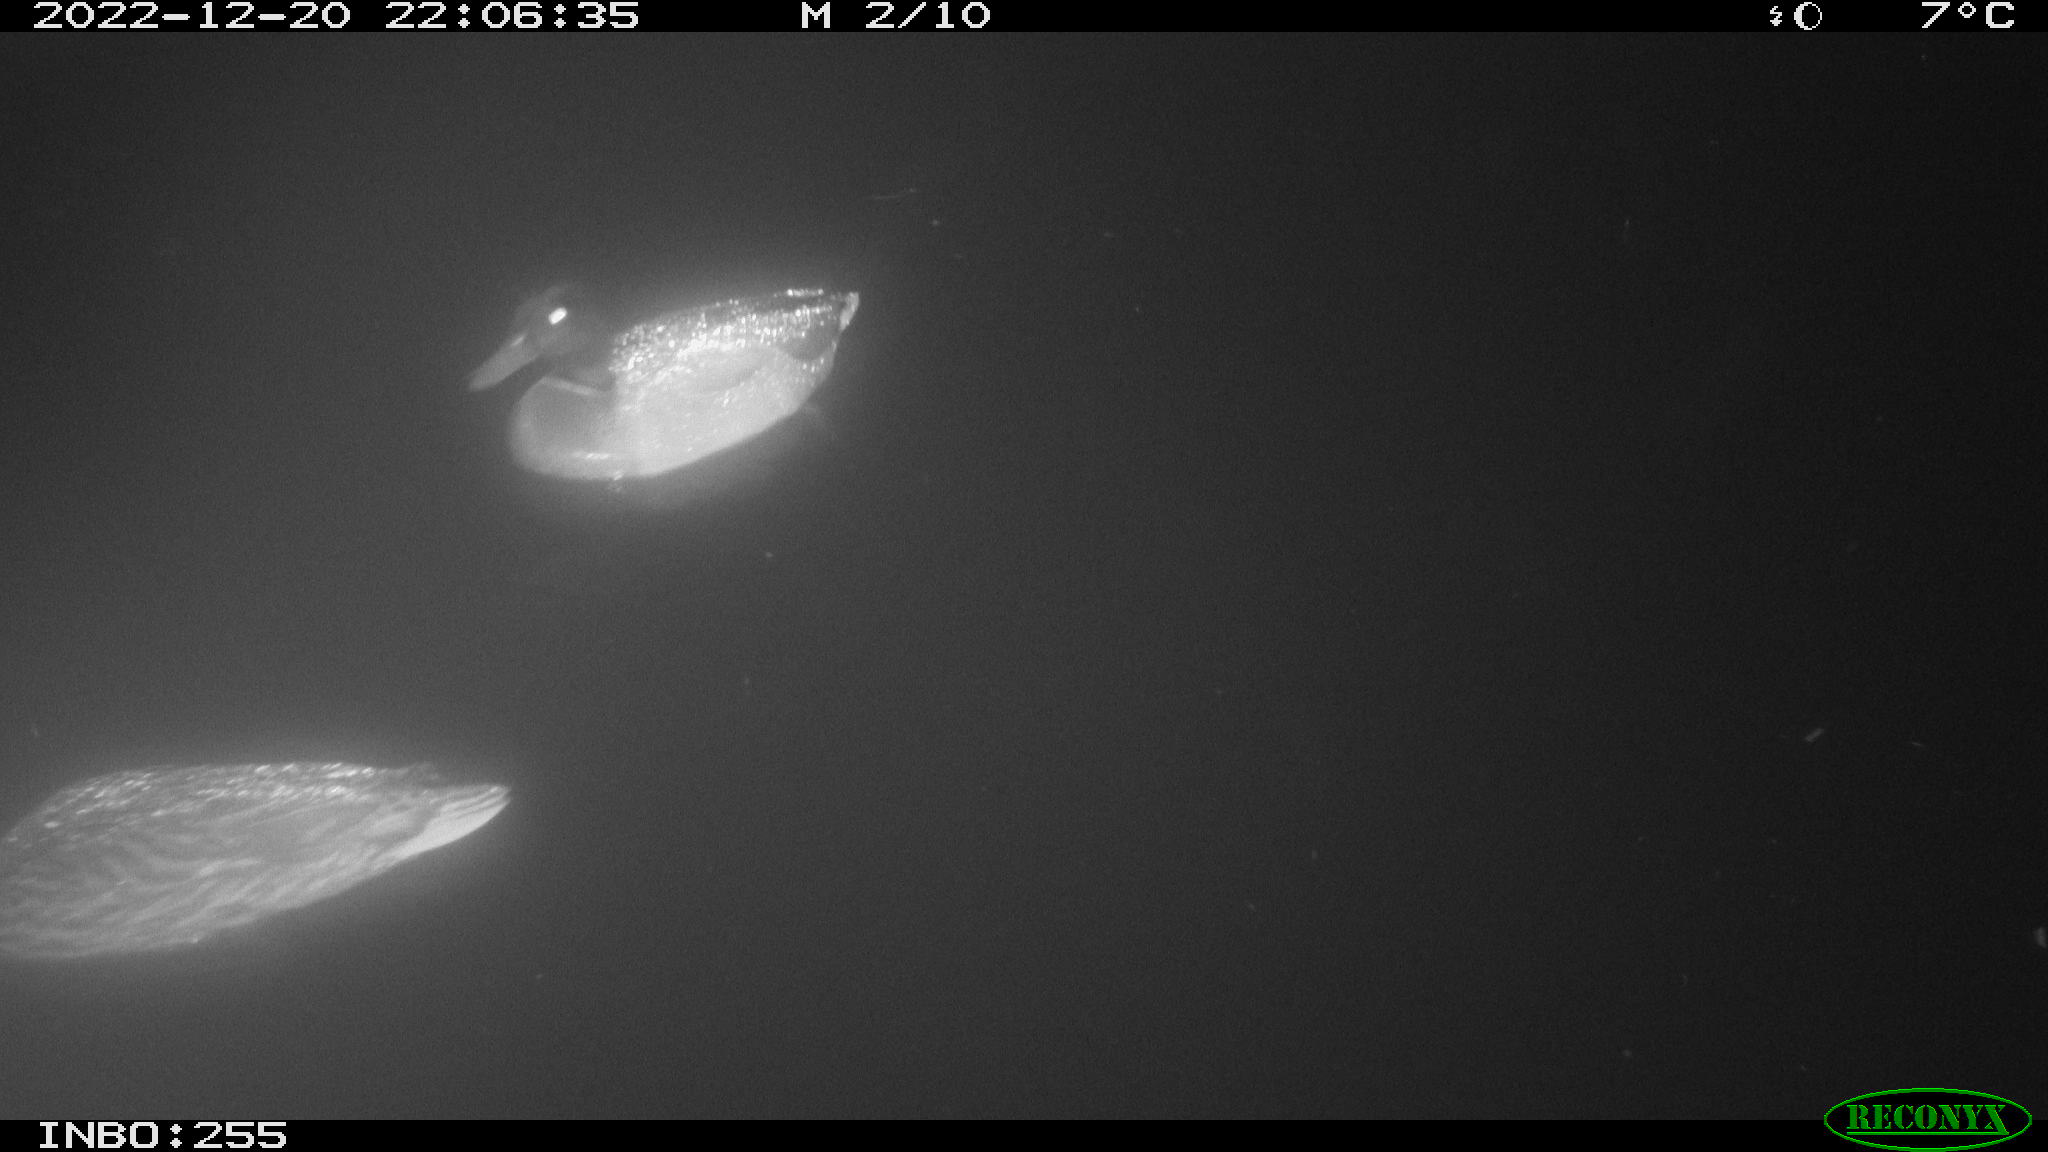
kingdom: Animalia
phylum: Chordata
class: Aves
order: Anseriformes
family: Anatidae
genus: Anas
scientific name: Anas
